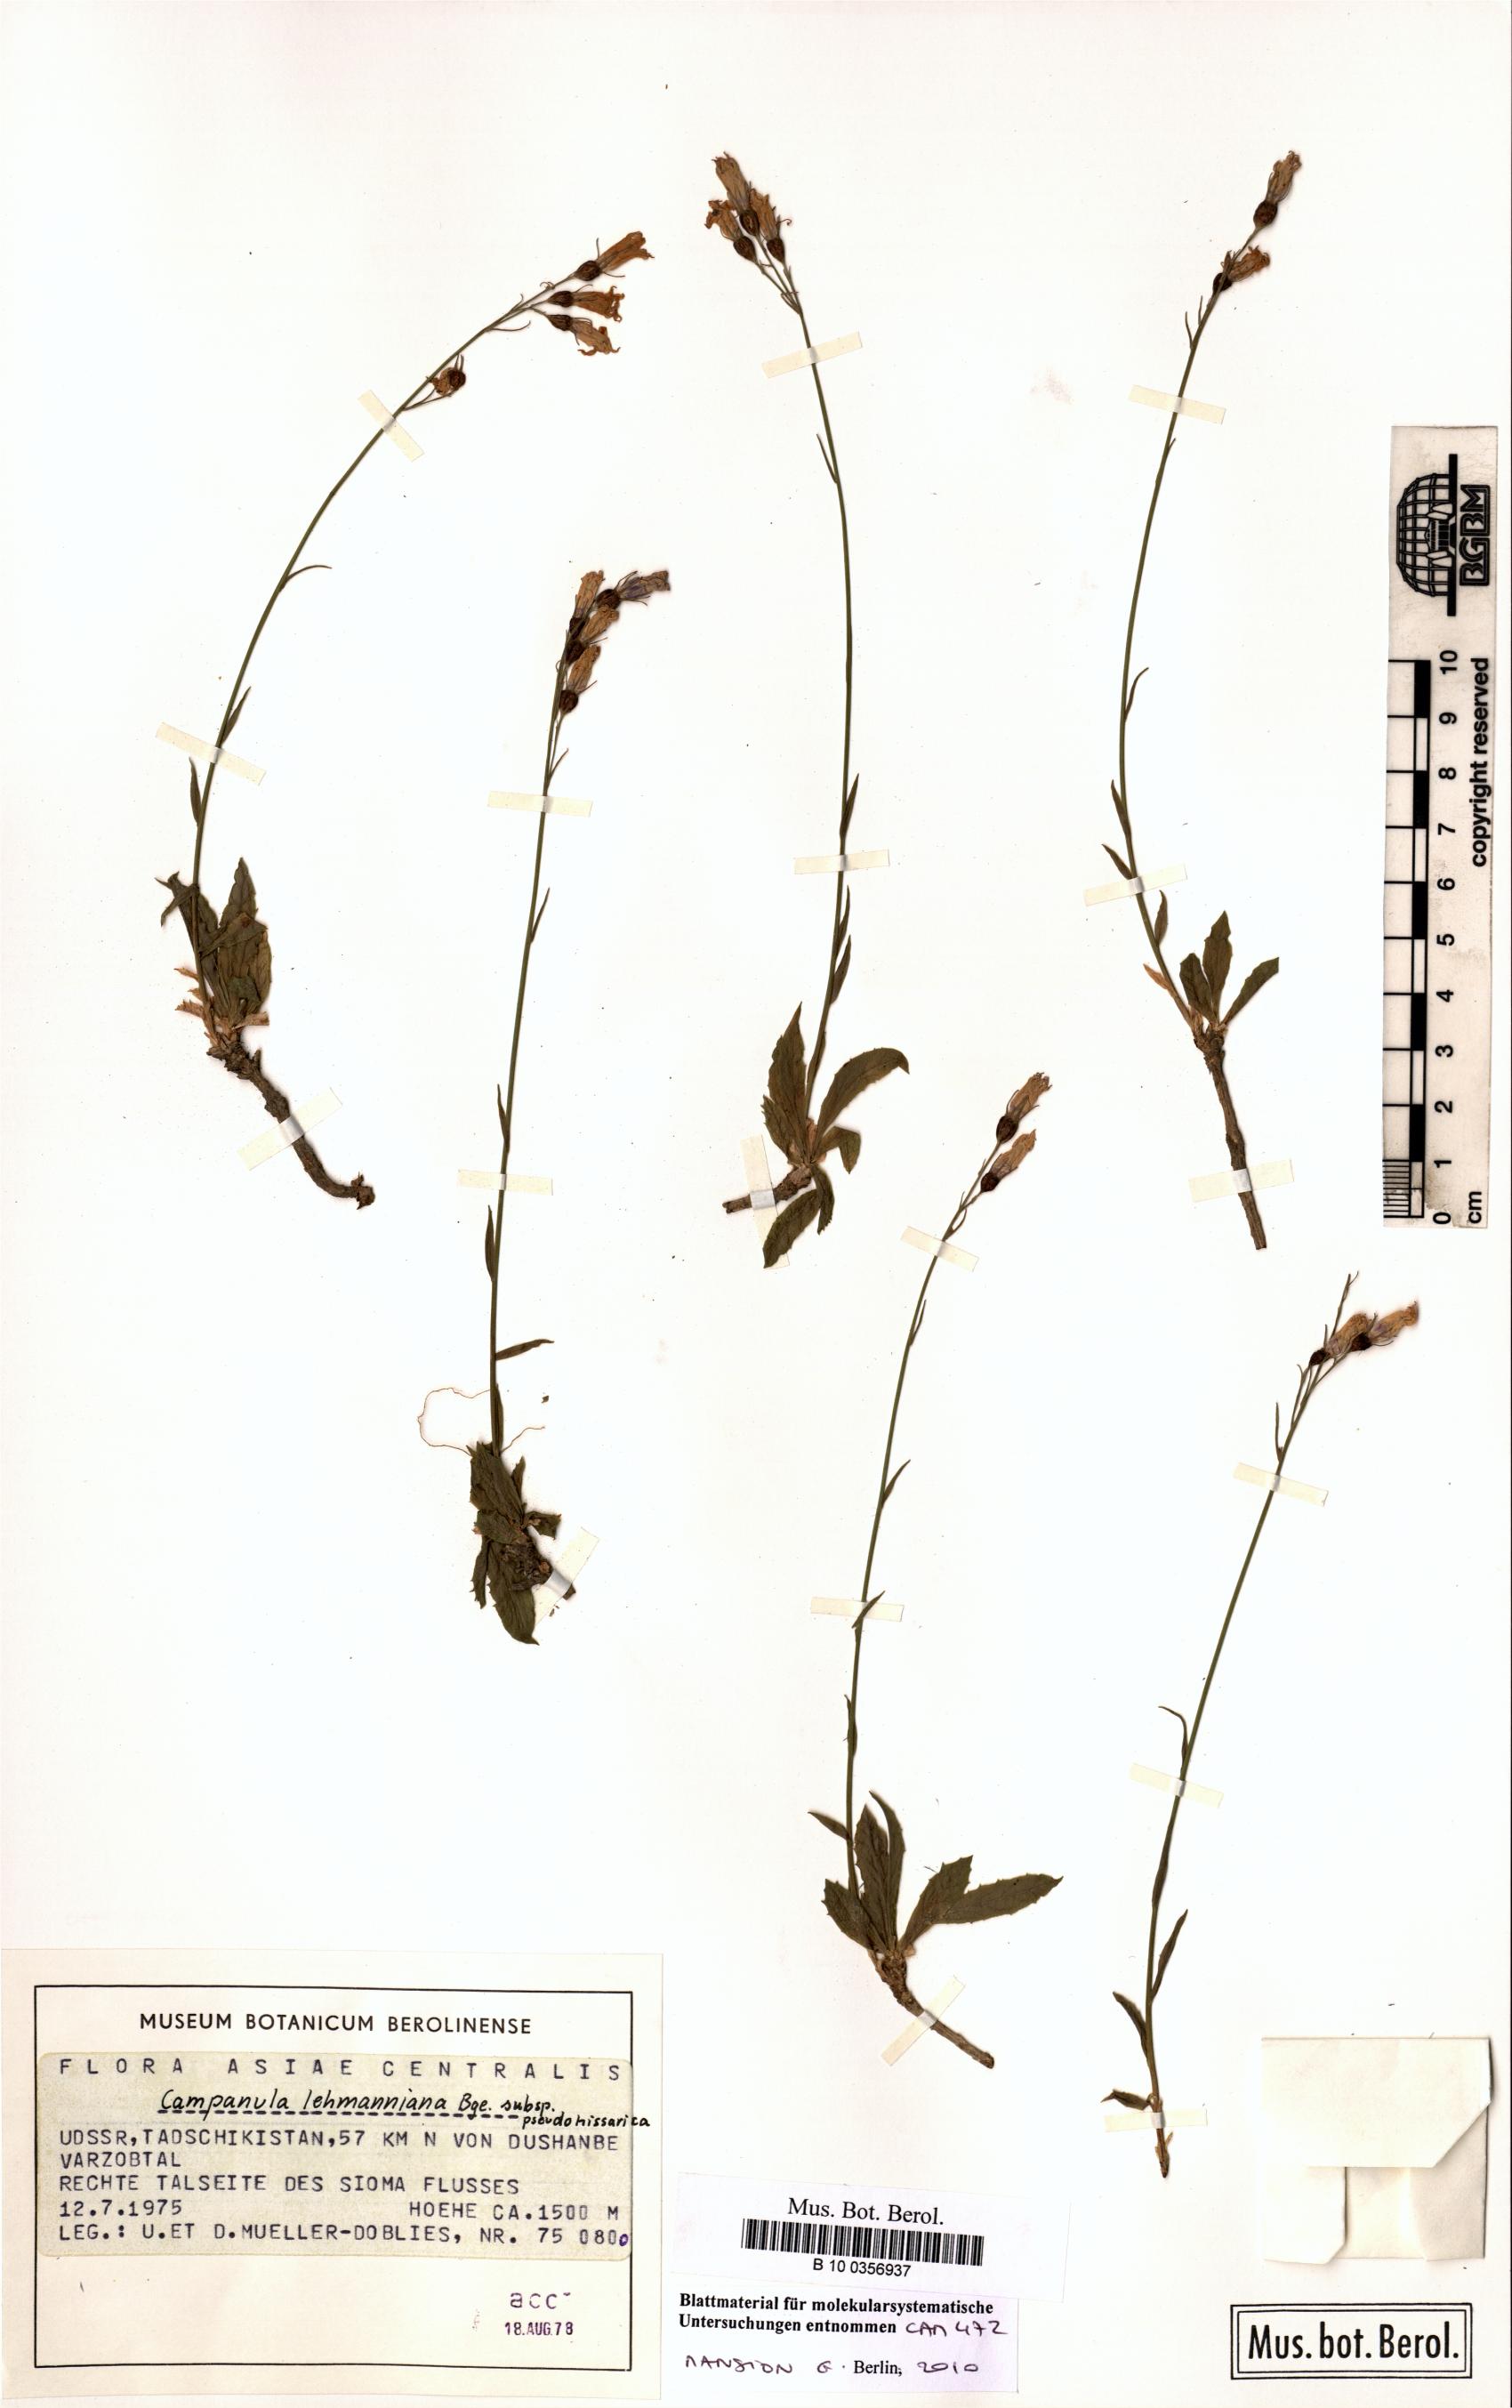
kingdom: Plantae
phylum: Tracheophyta
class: Magnoliopsida
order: Asterales
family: Campanulaceae
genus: Campanula
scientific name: Campanula lehmanniana
